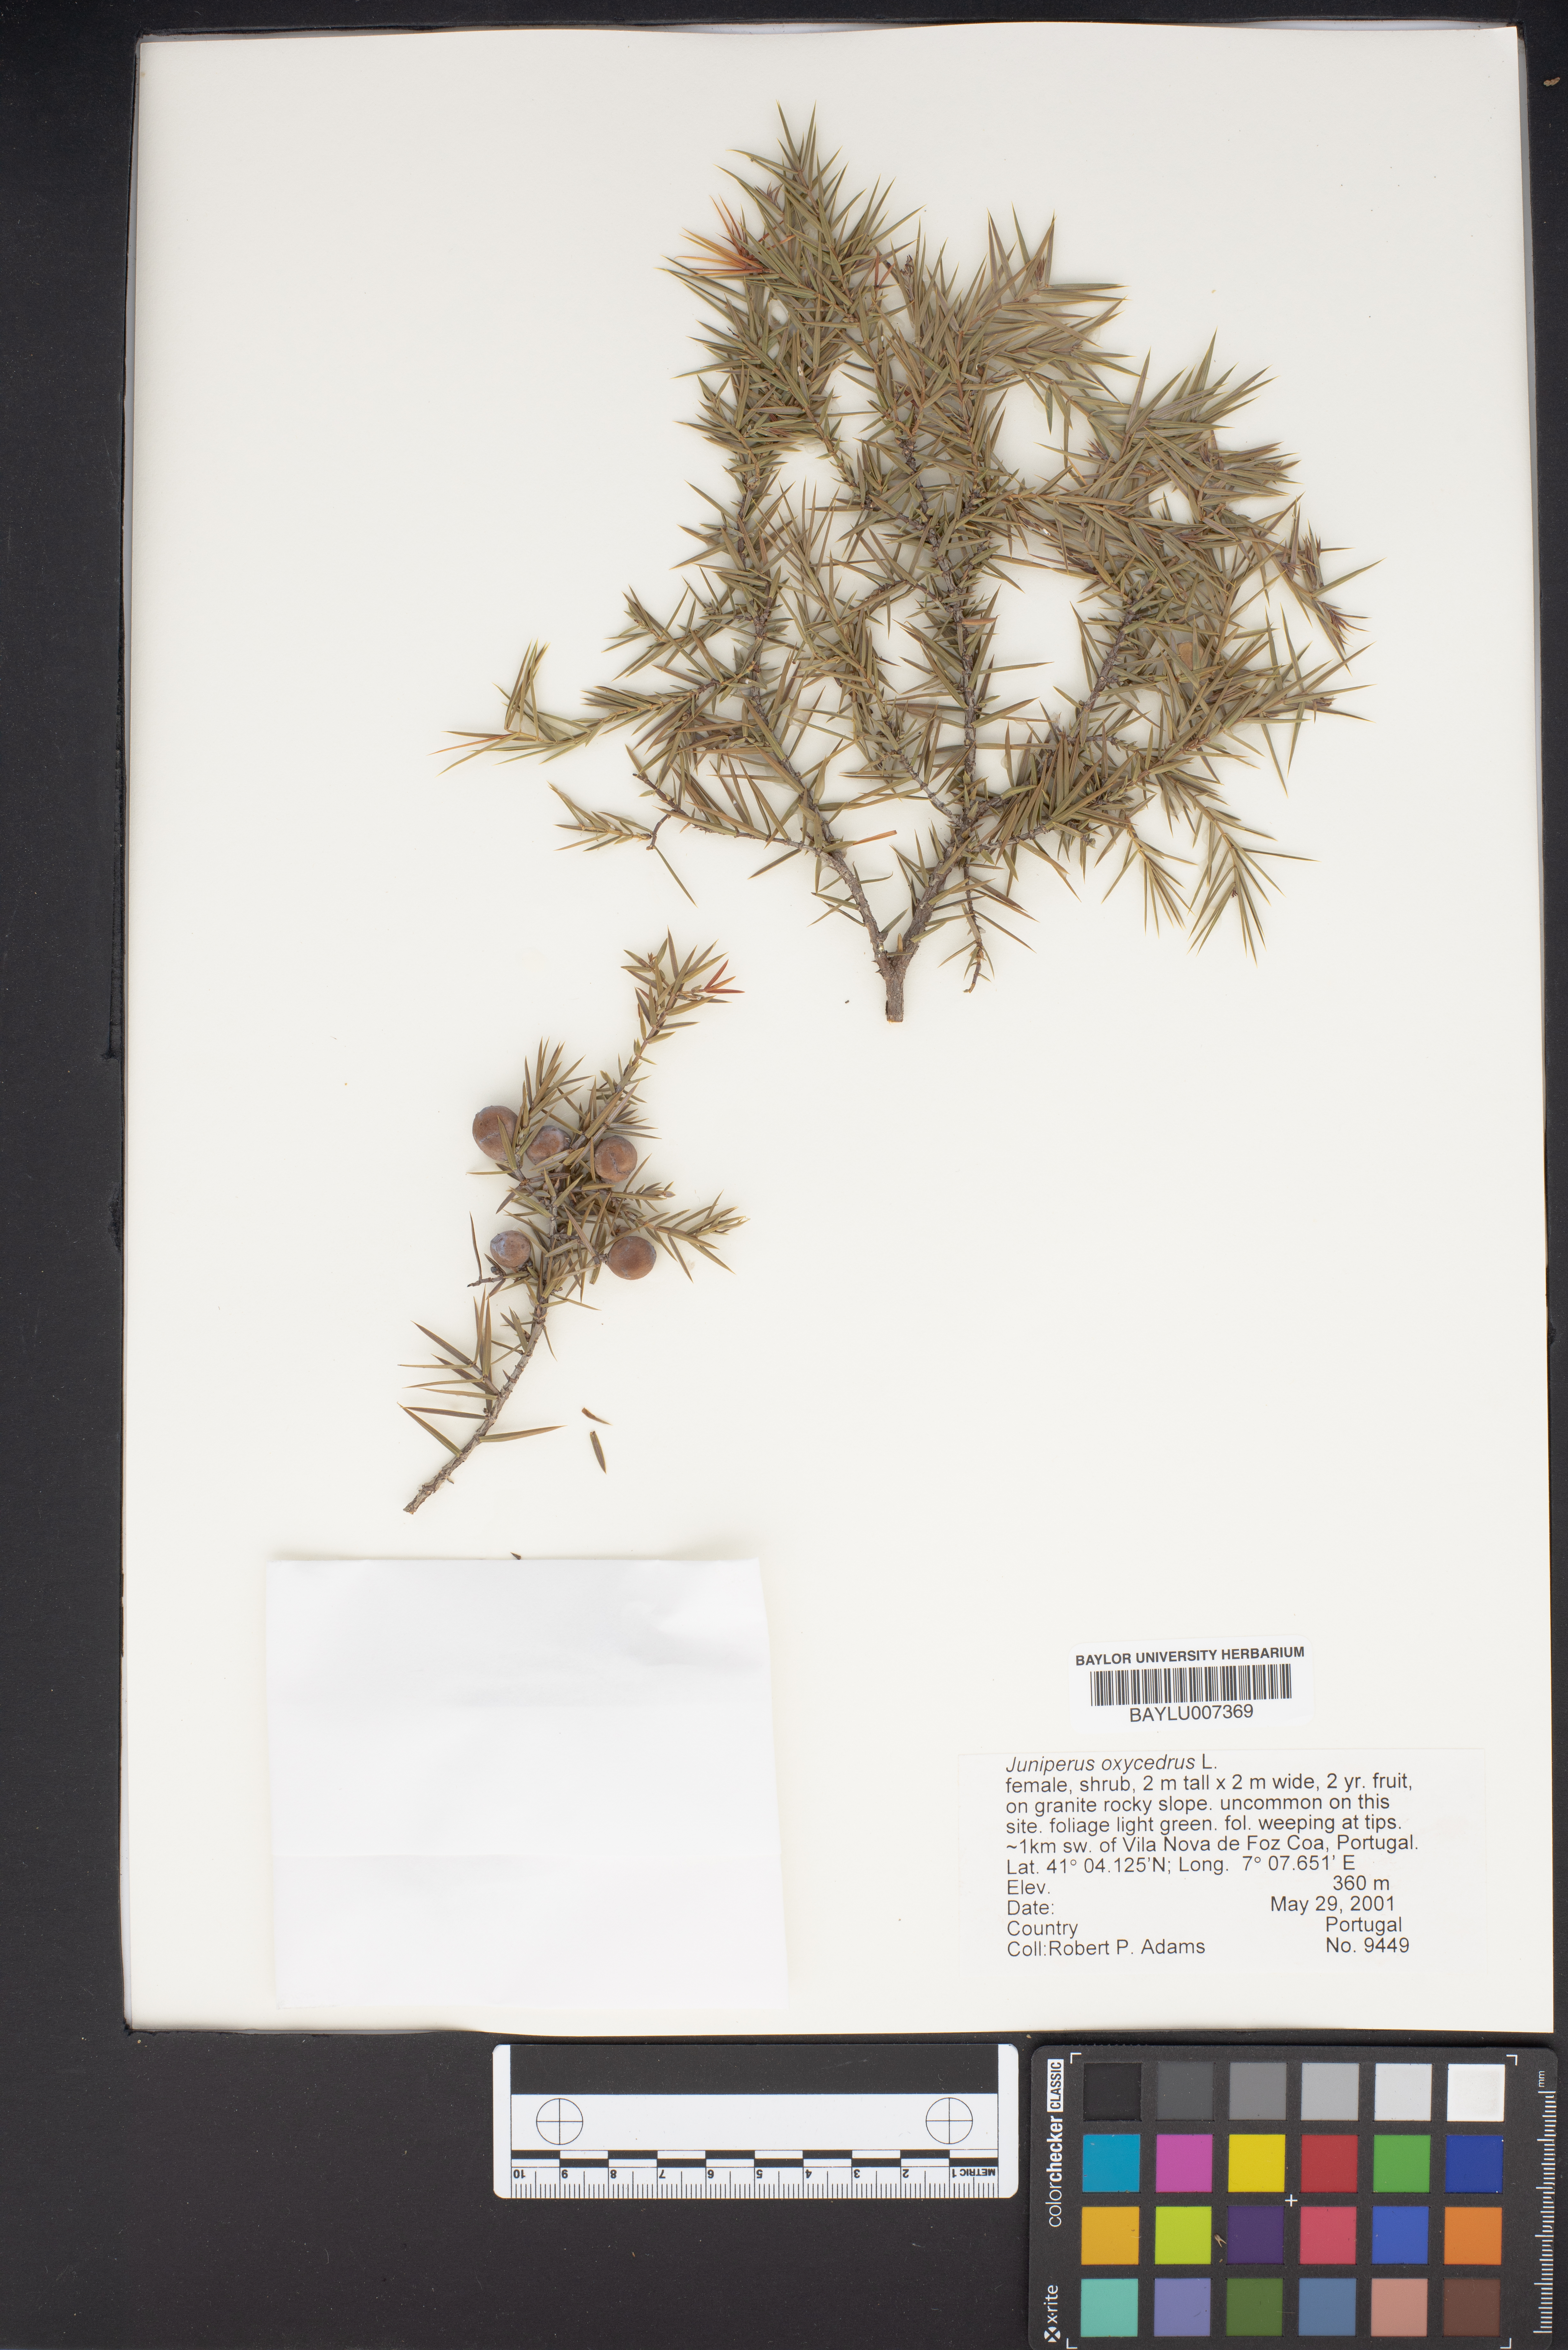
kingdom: Plantae
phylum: Tracheophyta
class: Pinopsida
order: Pinales
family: Cupressaceae
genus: Juniperus
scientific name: Juniperus oxycedrus
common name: Prickly juniper
